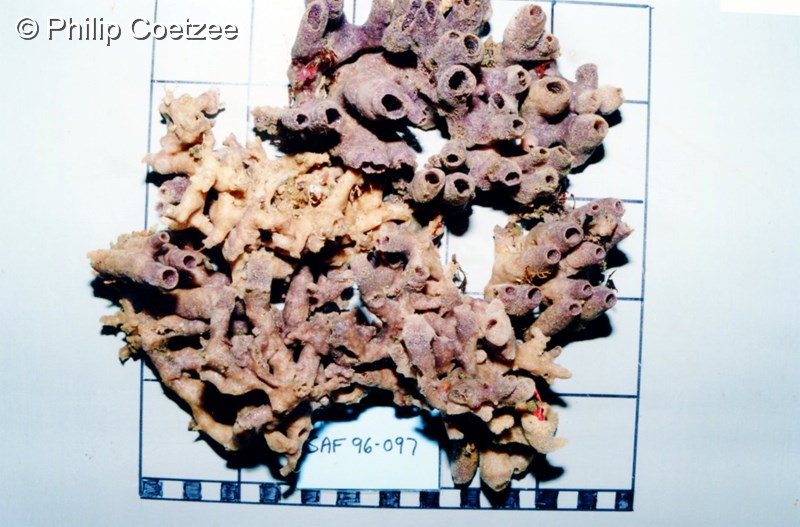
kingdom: Animalia
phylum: Porifera
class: Demospongiae
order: Haplosclerida
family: Chalinidae
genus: Haliclona
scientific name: Haliclona anonyma
